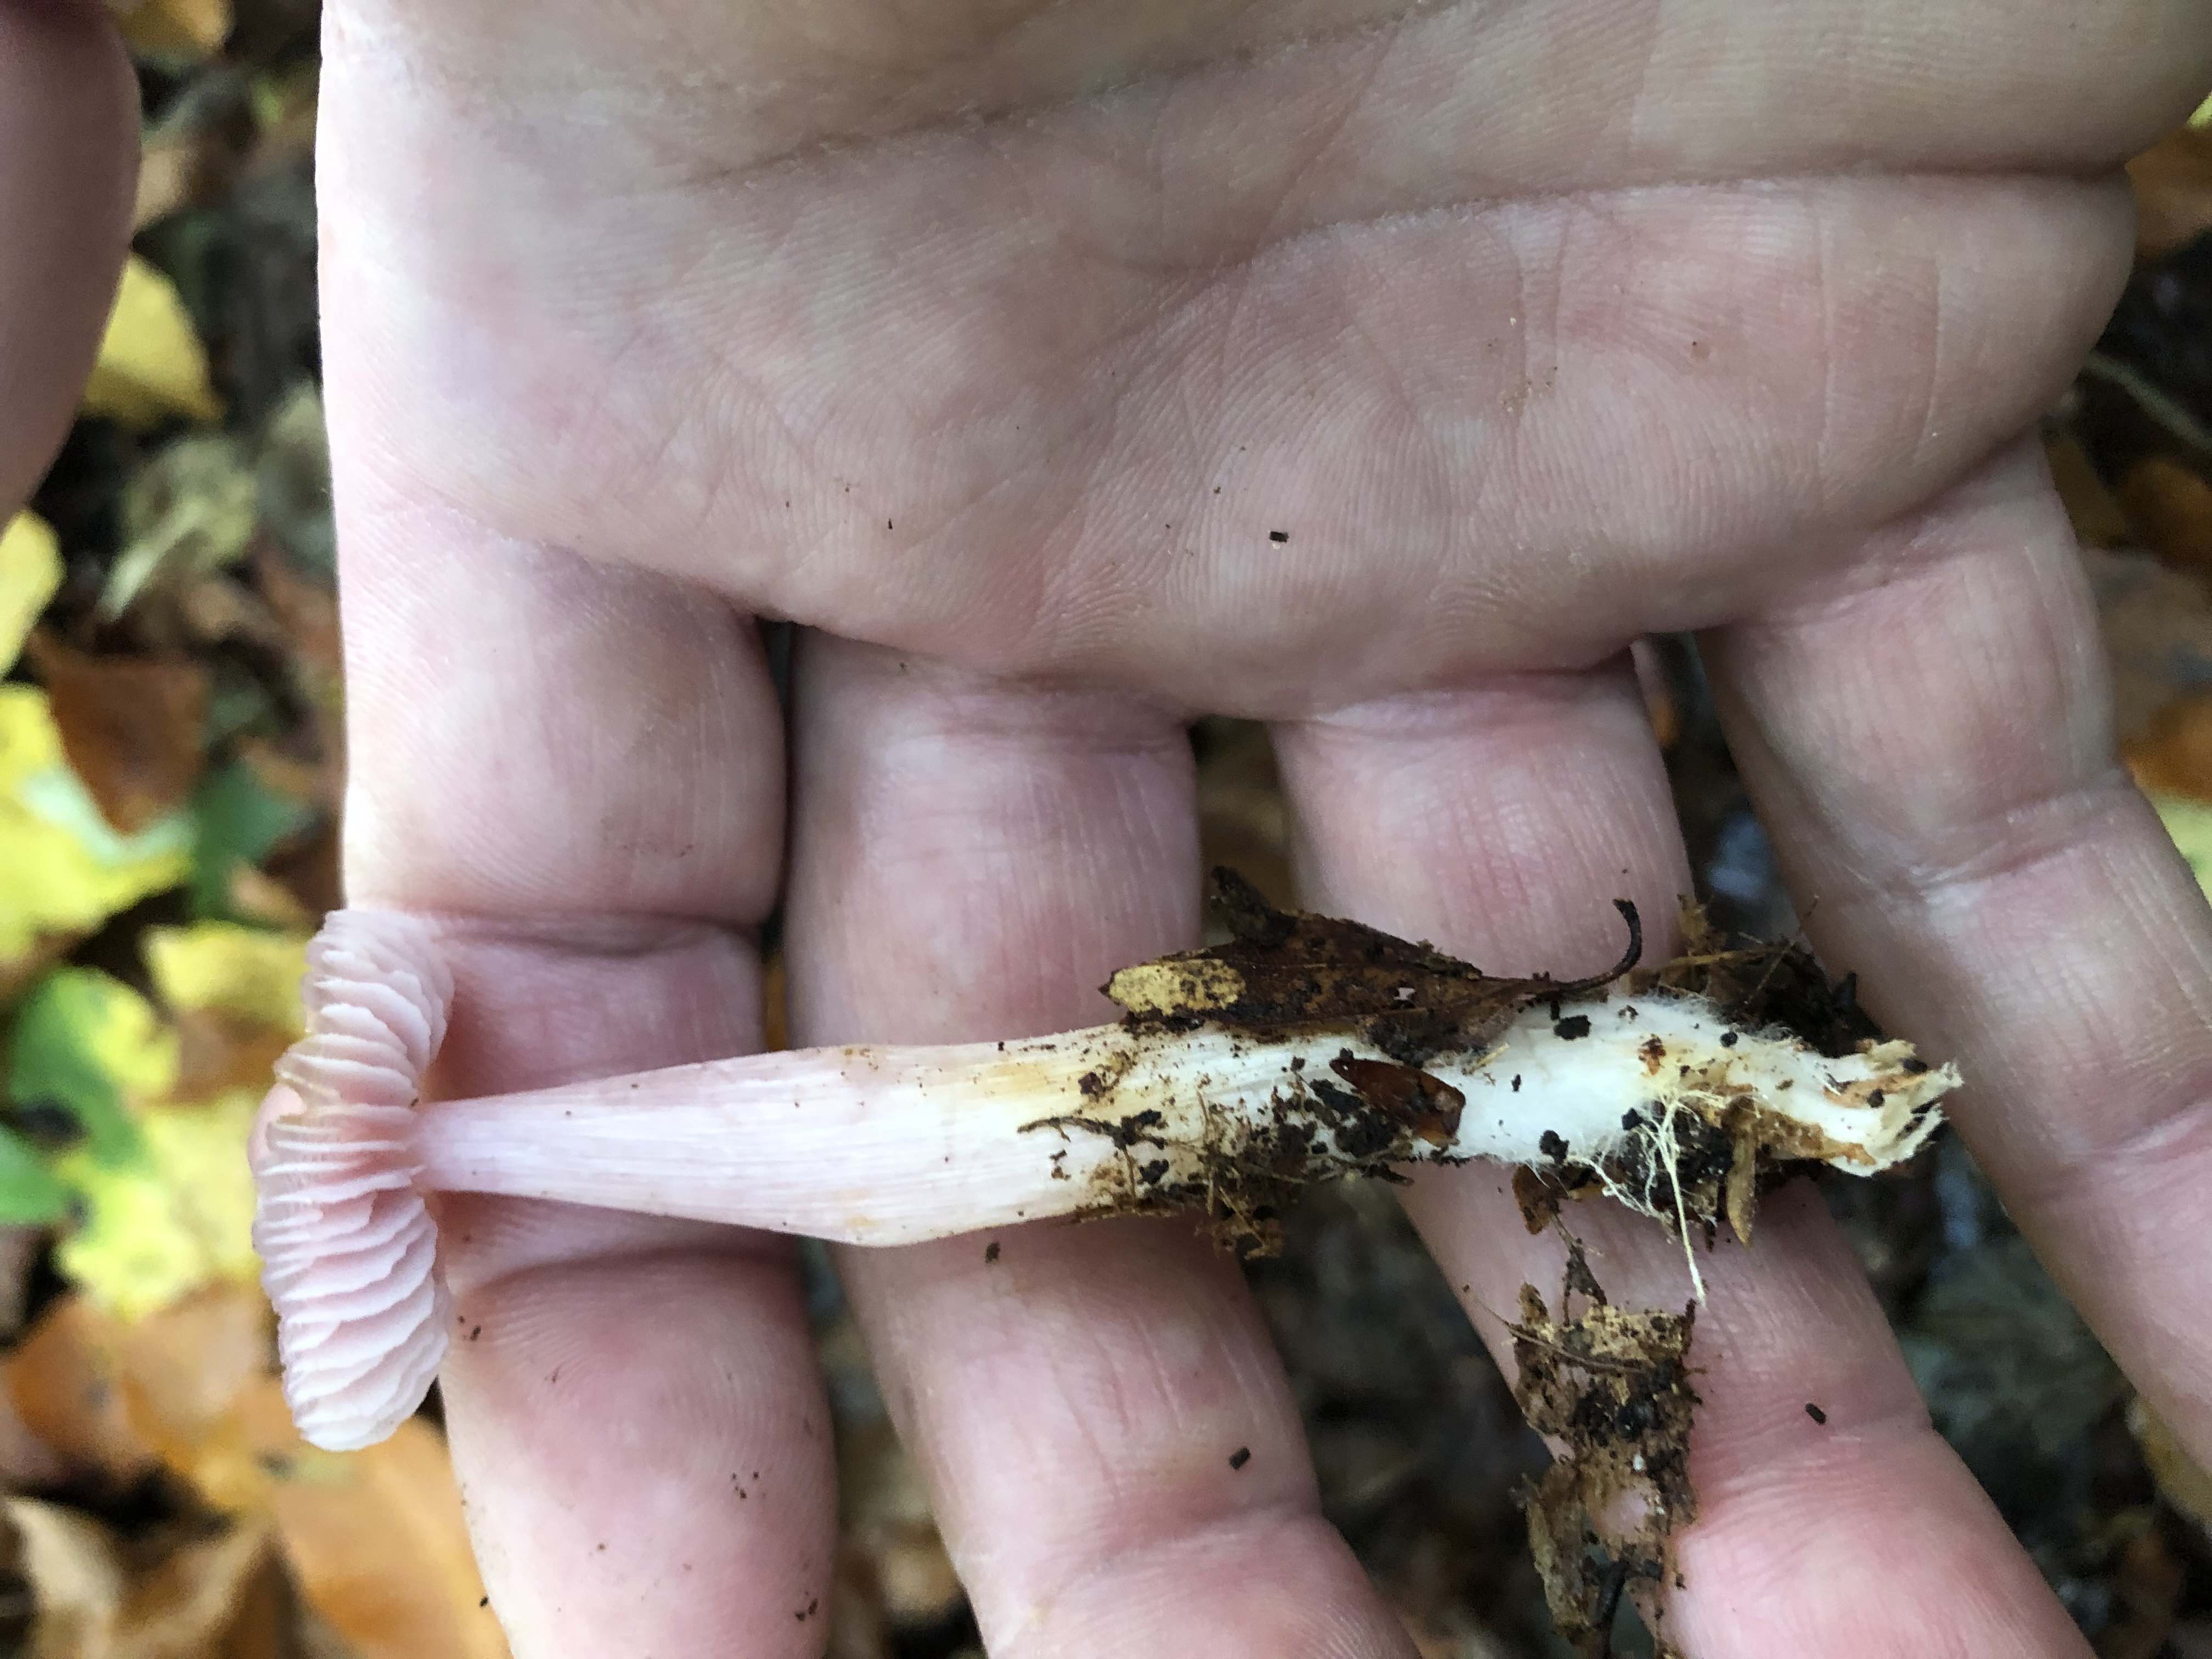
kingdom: Fungi
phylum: Basidiomycota
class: Agaricomycetes
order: Agaricales
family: Mycenaceae
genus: Mycena
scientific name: Mycena rosea
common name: rosa huesvamp
